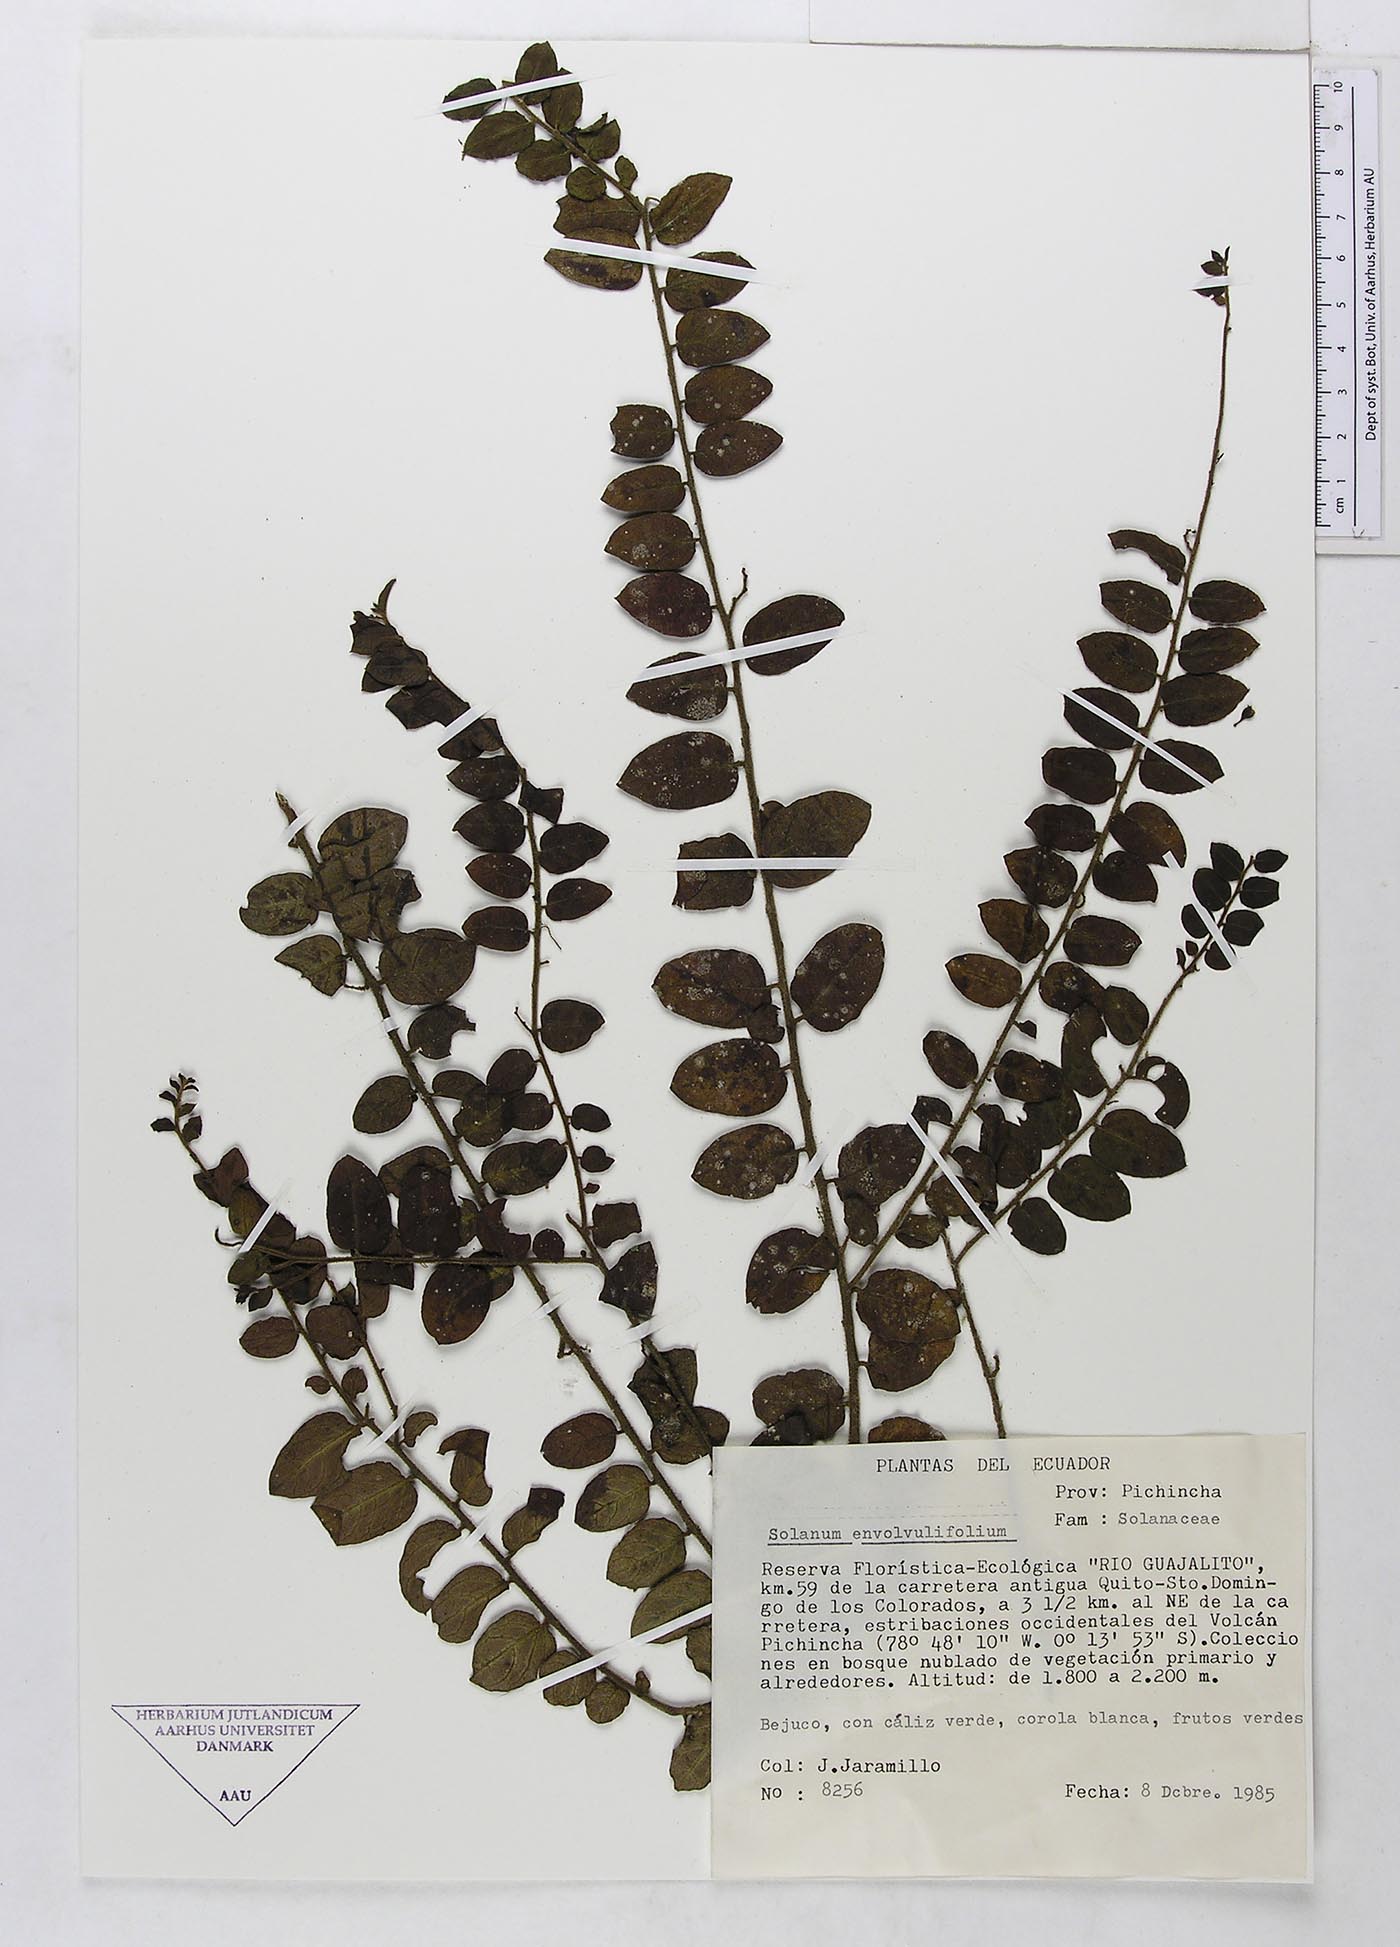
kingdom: Plantae
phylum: Tracheophyta
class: Magnoliopsida
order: Solanales
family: Solanaceae
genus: Solanum
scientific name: Solanum evolvulifolium
